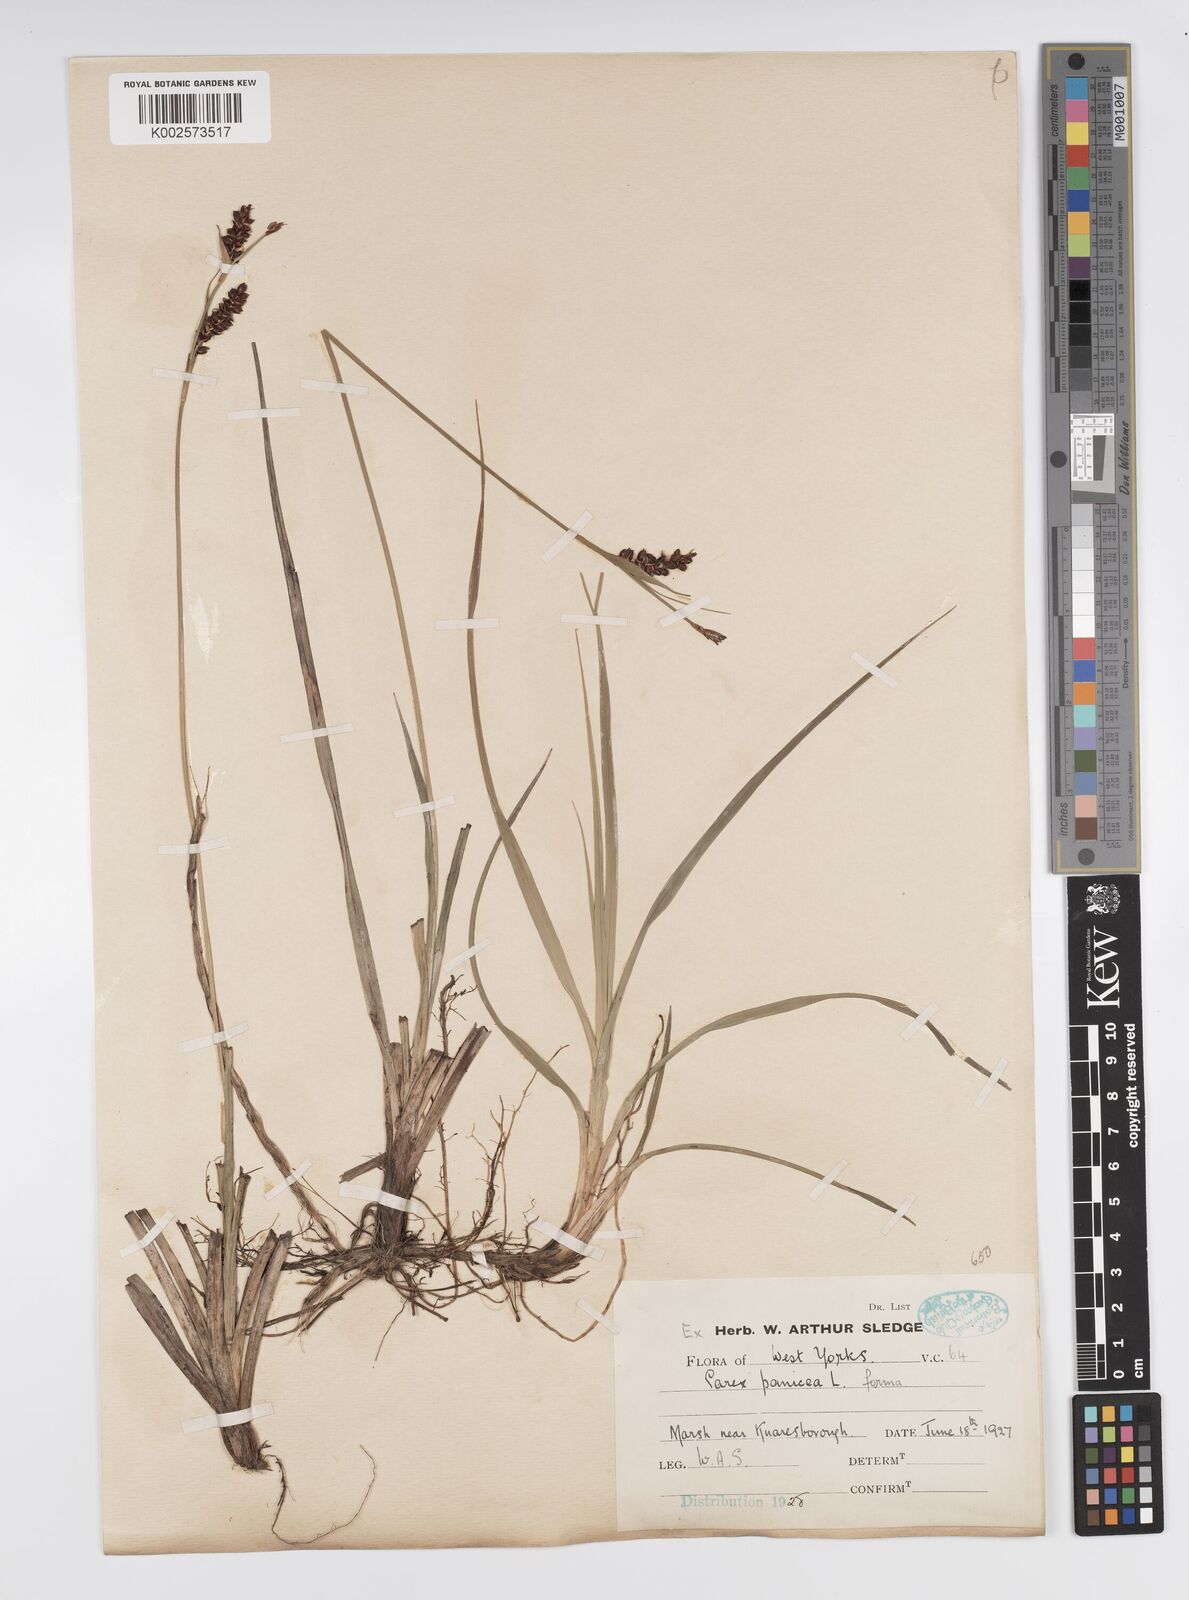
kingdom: Plantae
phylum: Tracheophyta
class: Liliopsida
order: Poales
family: Cyperaceae
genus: Carex
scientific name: Carex panicea
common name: Carnation sedge
